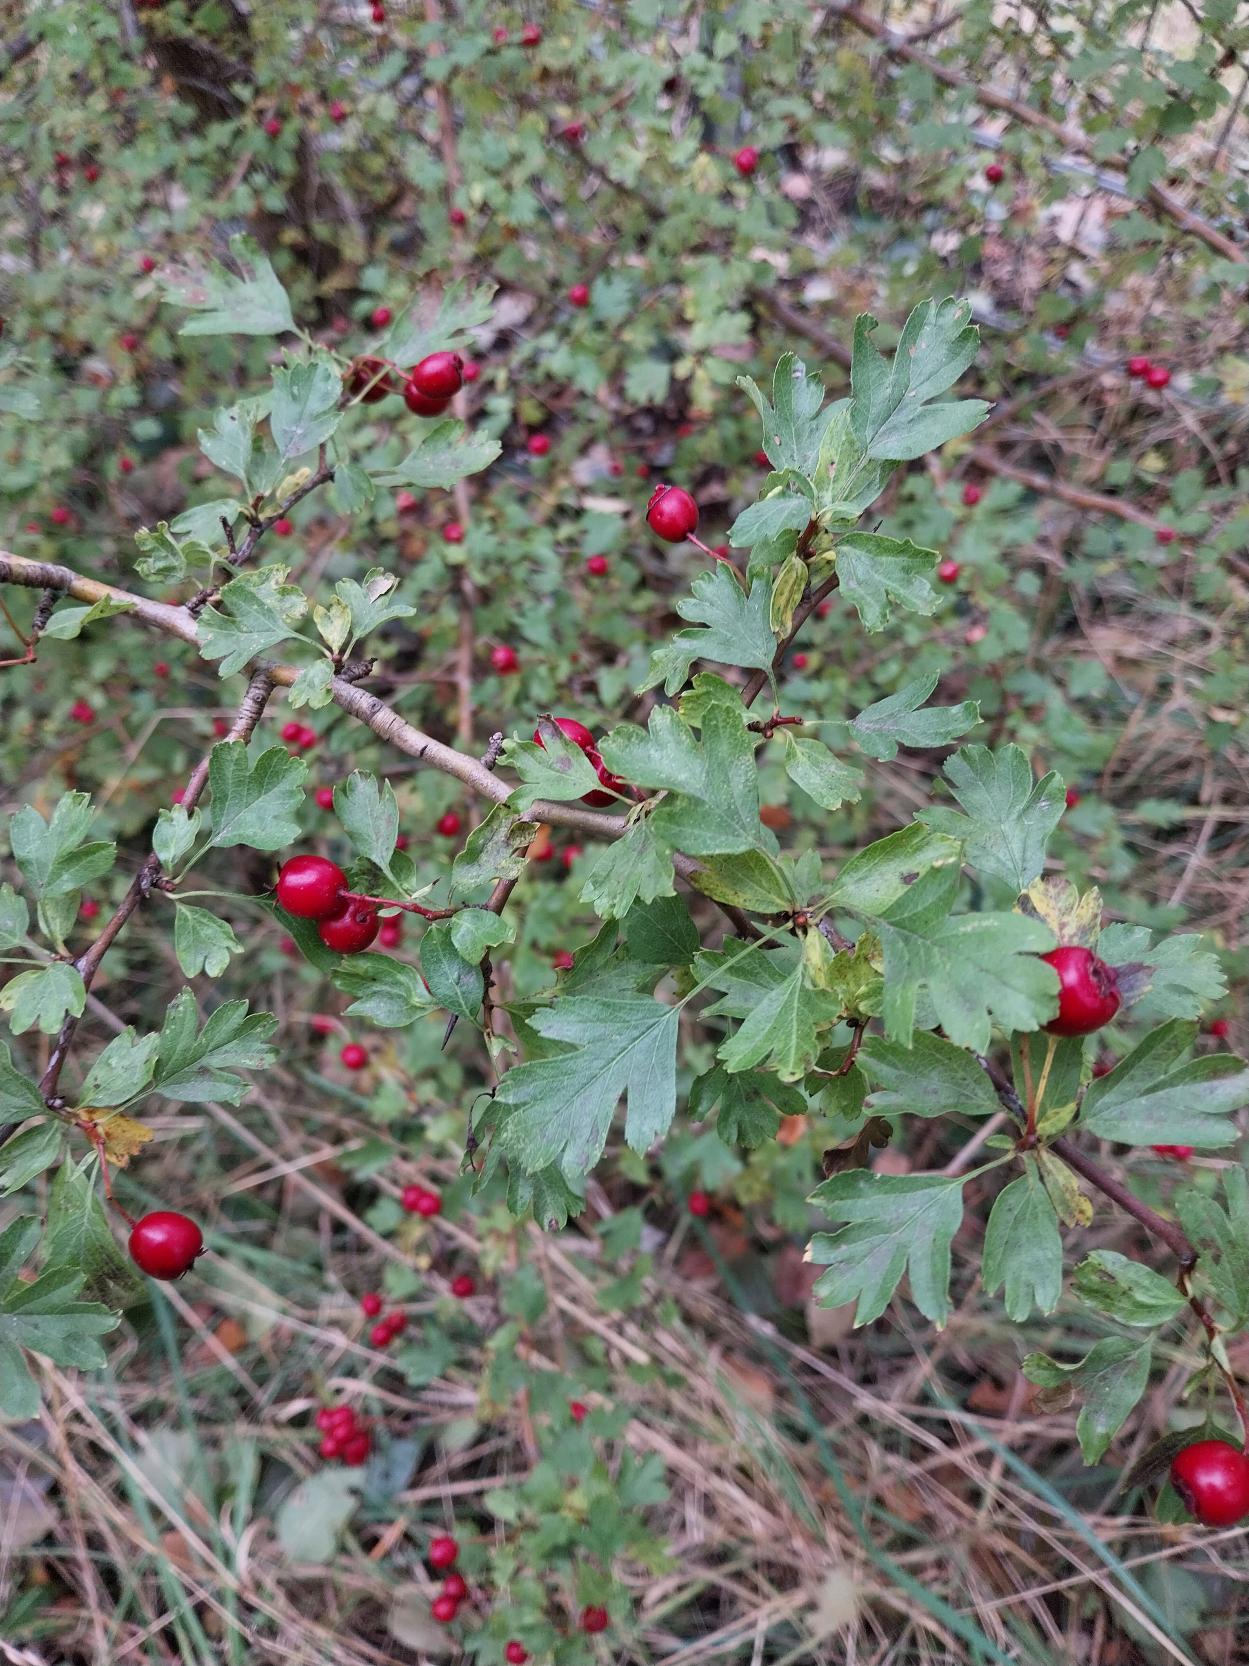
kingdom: Plantae
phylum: Tracheophyta
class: Magnoliopsida
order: Rosales
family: Rosaceae
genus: Crataegus
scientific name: Crataegus monogyna
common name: Engriflet hvidtjørn
